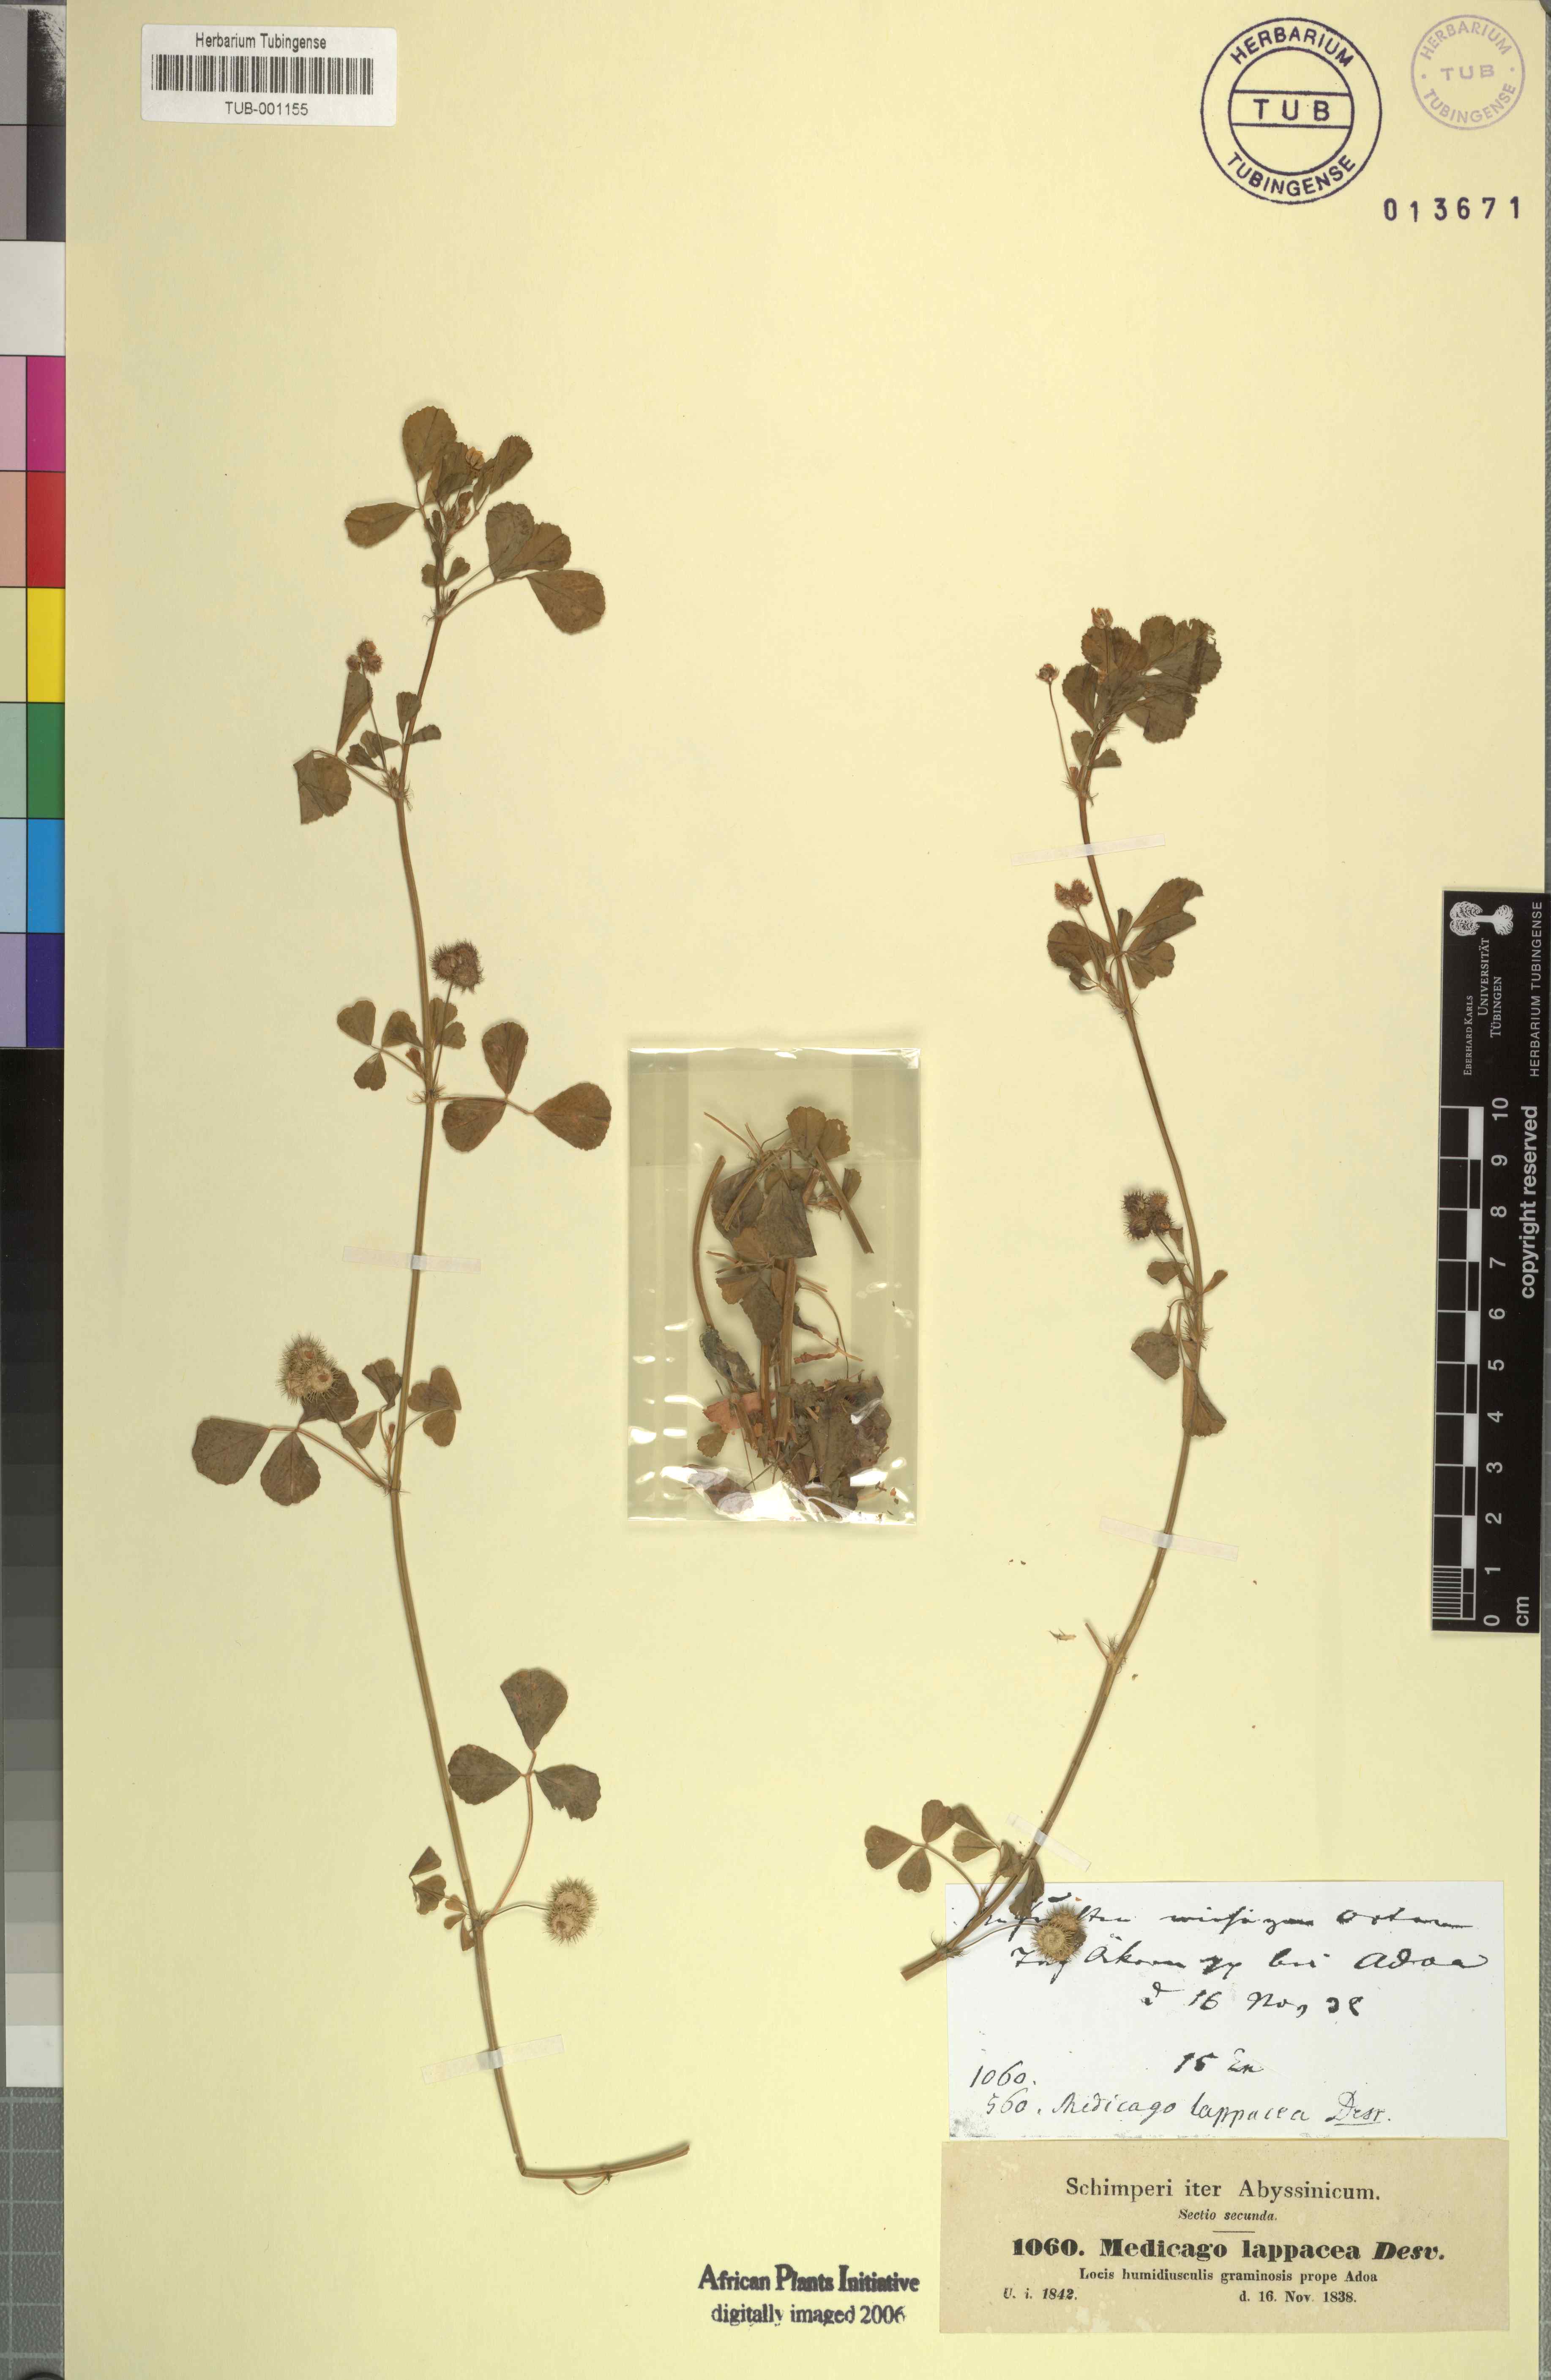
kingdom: Plantae
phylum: Tracheophyta
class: Magnoliopsida
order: Fabales
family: Fabaceae
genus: Medicago
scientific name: Medicago polymorpha
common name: Burclover
